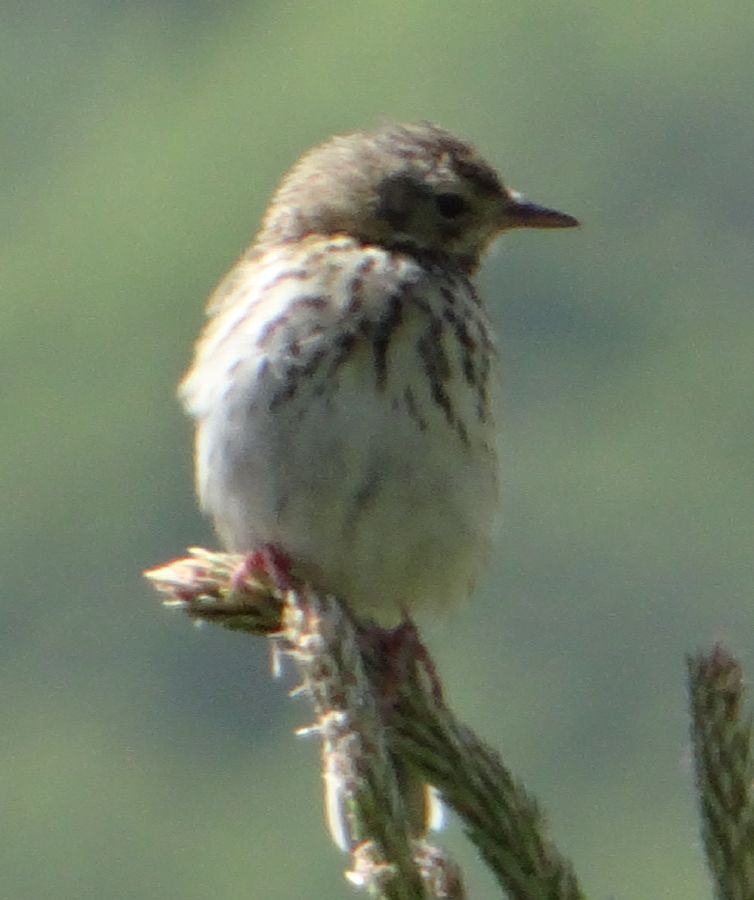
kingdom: Animalia
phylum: Chordata
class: Aves
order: Passeriformes
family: Motacillidae
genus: Anthus
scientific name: Anthus trivialis
